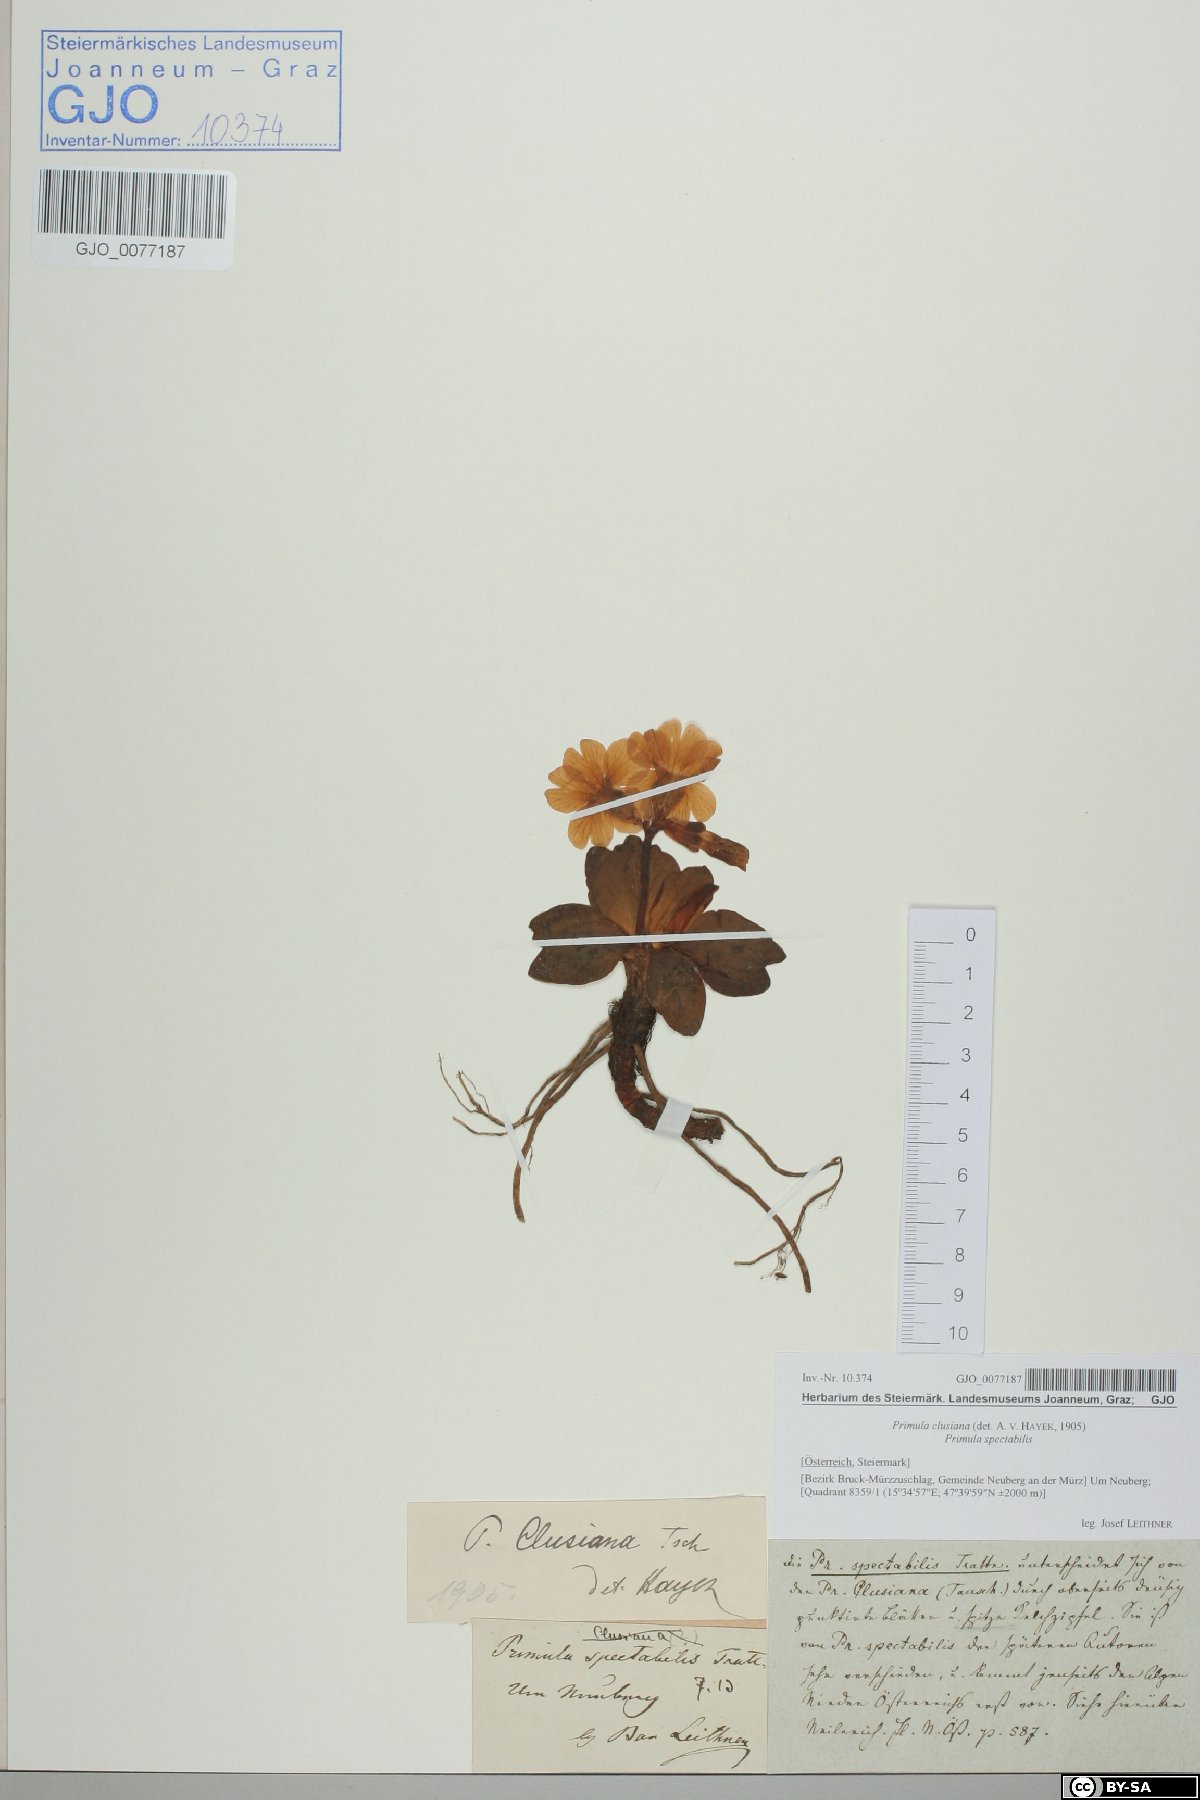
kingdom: Plantae
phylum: Tracheophyta
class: Magnoliopsida
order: Ericales
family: Primulaceae
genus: Primula
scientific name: Primula clusiana
